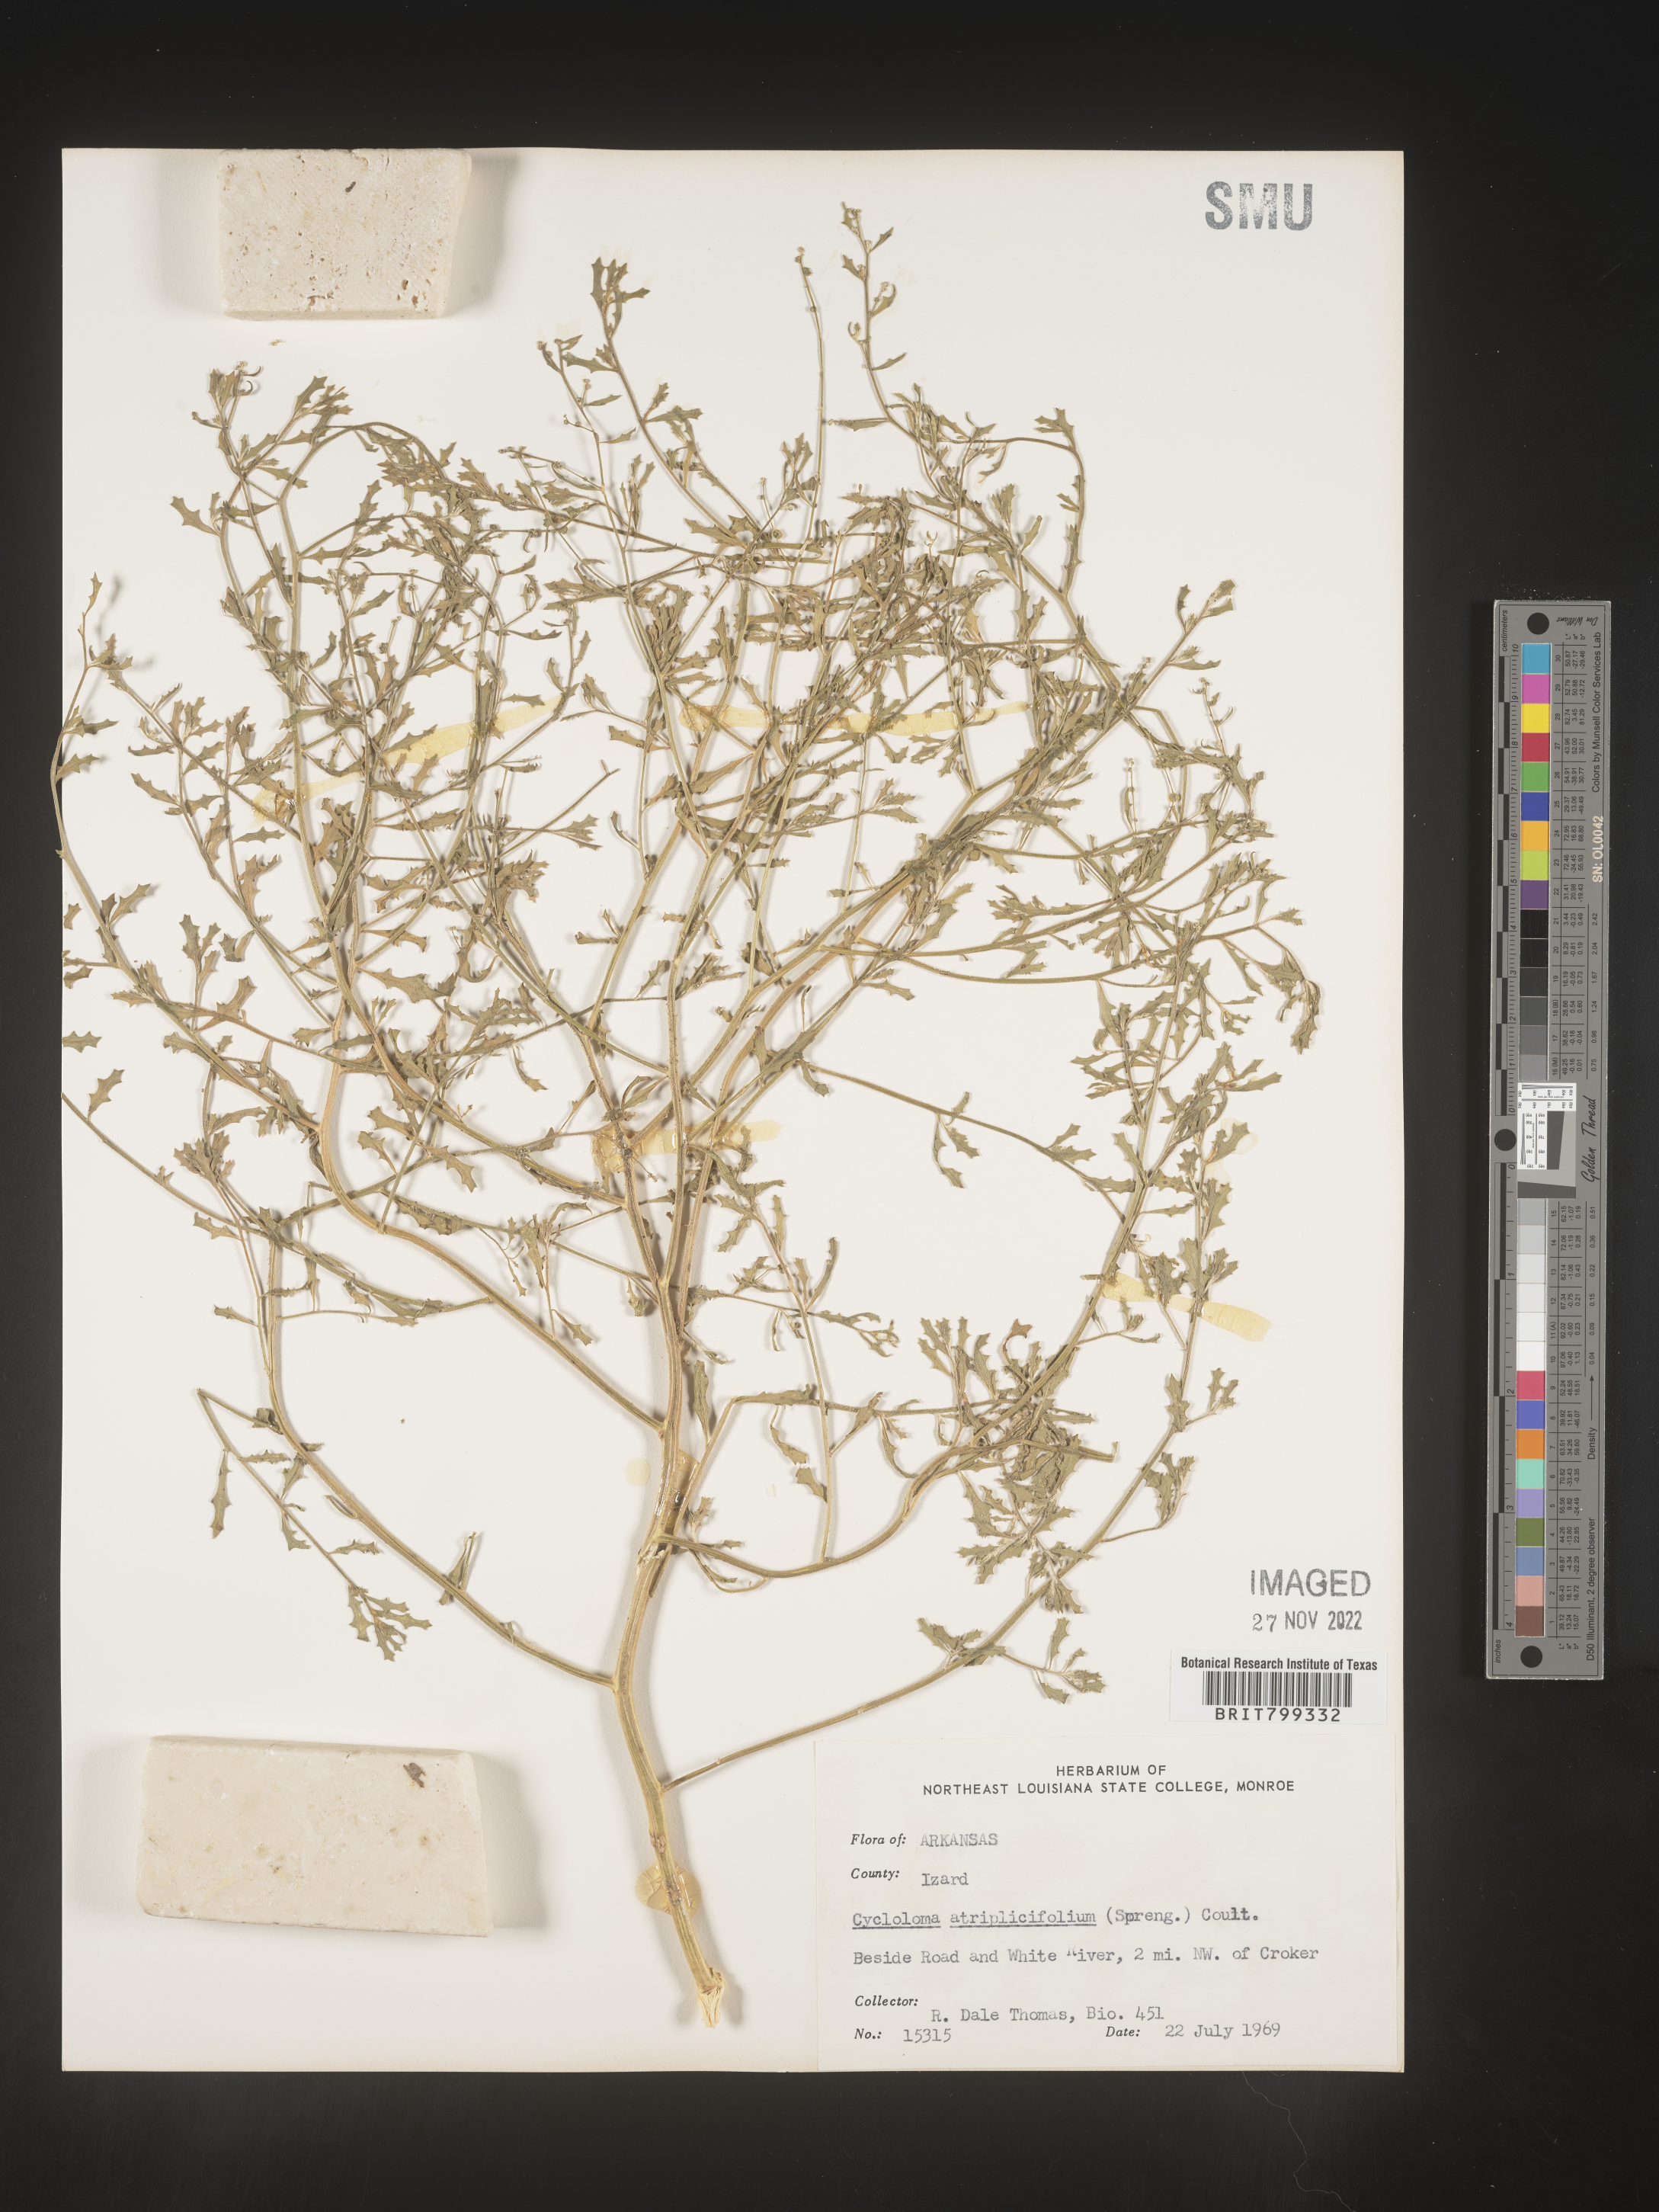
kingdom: Plantae
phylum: Tracheophyta
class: Magnoliopsida
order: Caryophyllales
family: Amaranthaceae
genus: Dysphania
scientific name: Dysphania atriplicifolia
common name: Plains tumbleweed
